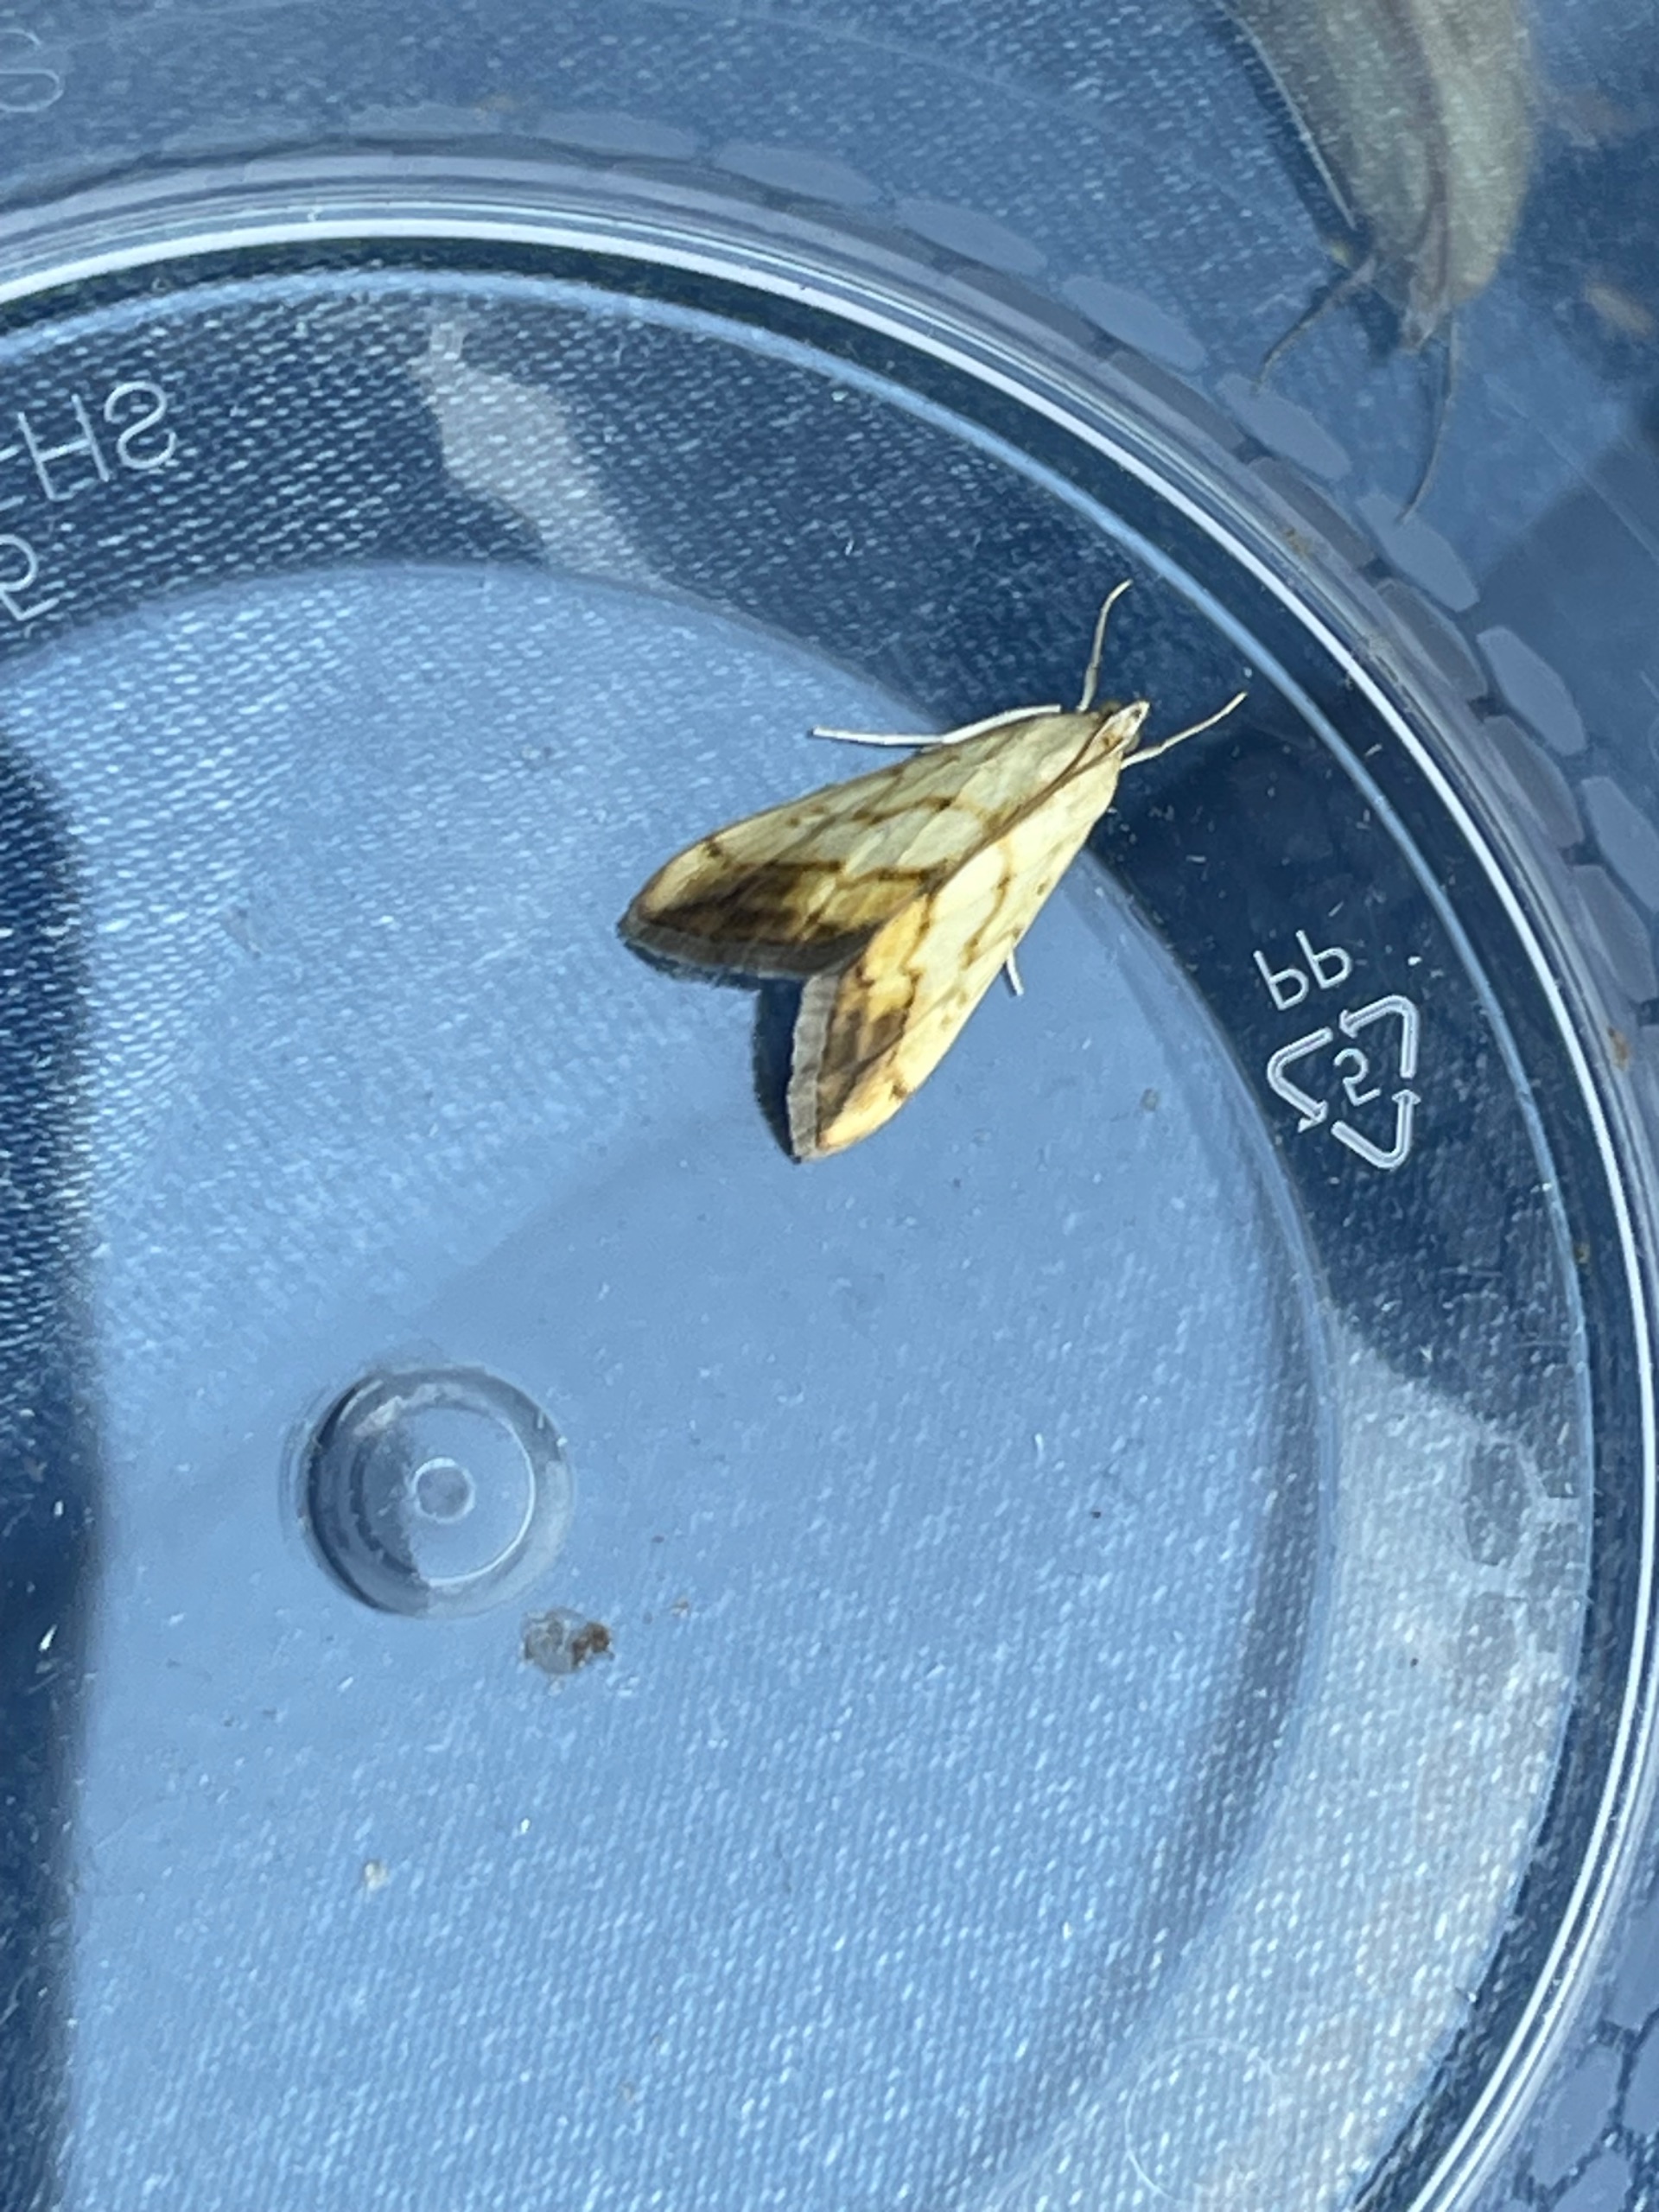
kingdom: Animalia
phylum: Arthropoda
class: Insecta
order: Lepidoptera
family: Crambidae
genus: Evergestis
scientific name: Evergestis extimalis
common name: Korsblomsthalvmøl
